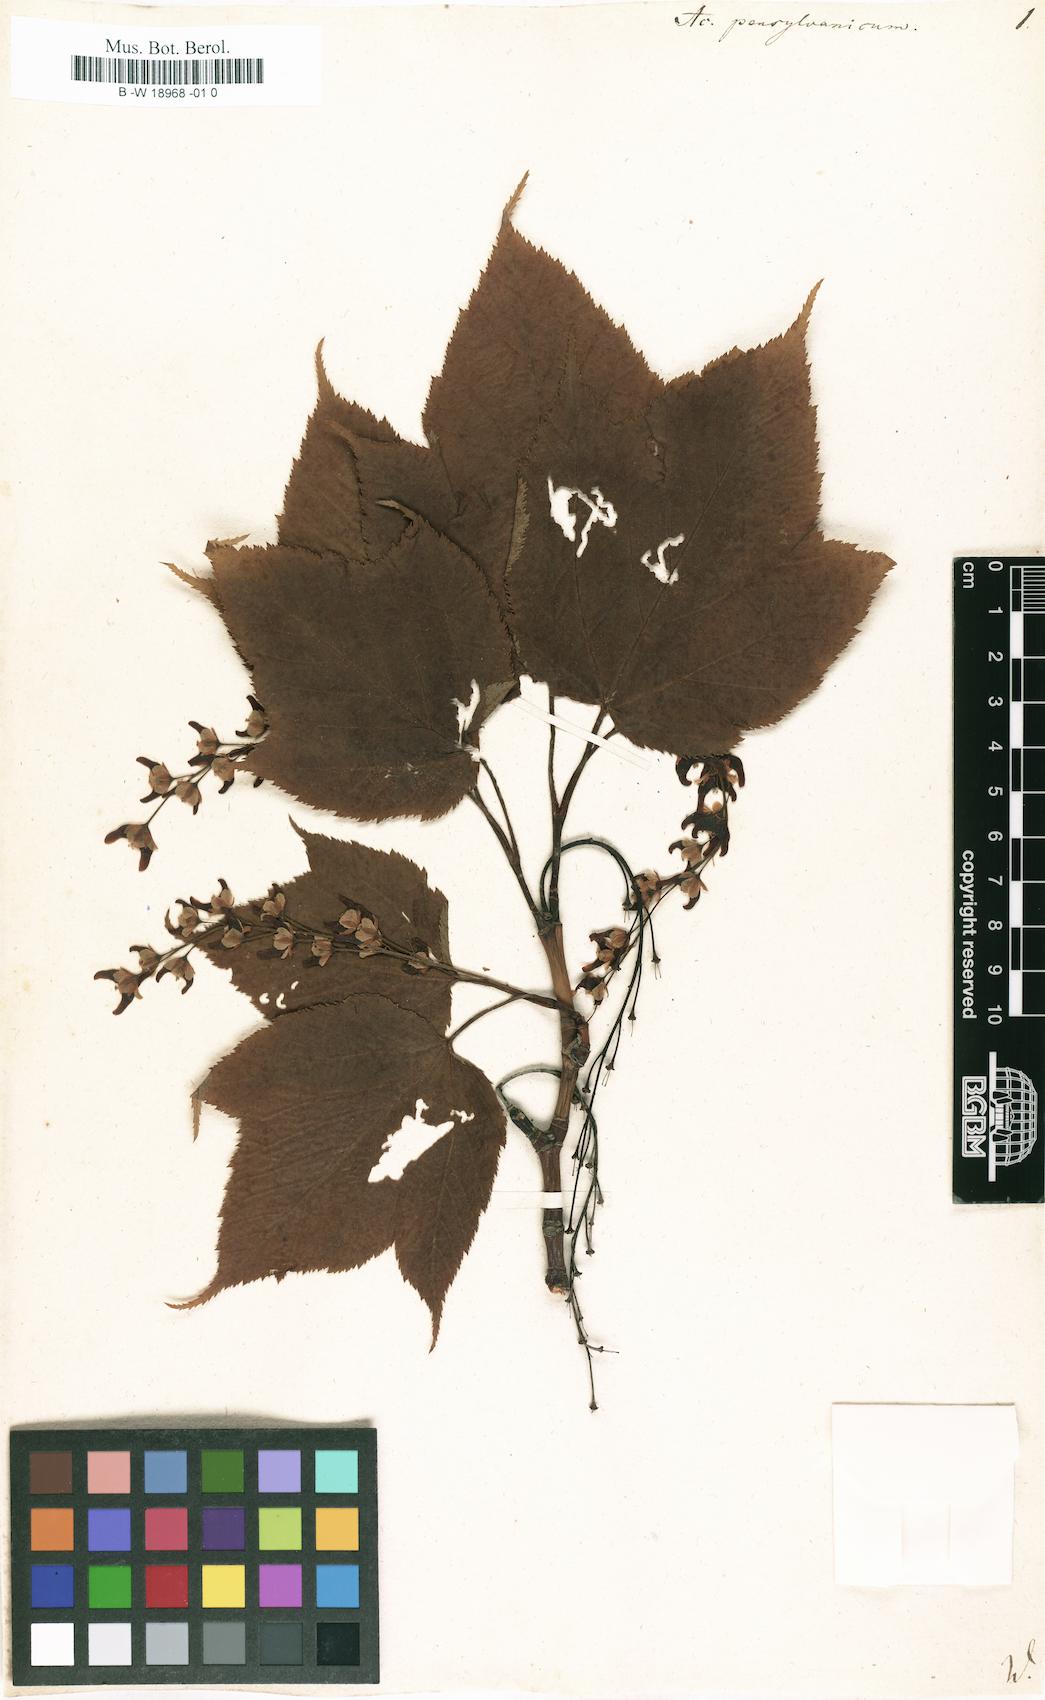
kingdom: Plantae
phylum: Tracheophyta
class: Magnoliopsida
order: Sapindales
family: Sapindaceae
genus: Acer
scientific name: Acer pensylvanicum
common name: Moosewood
